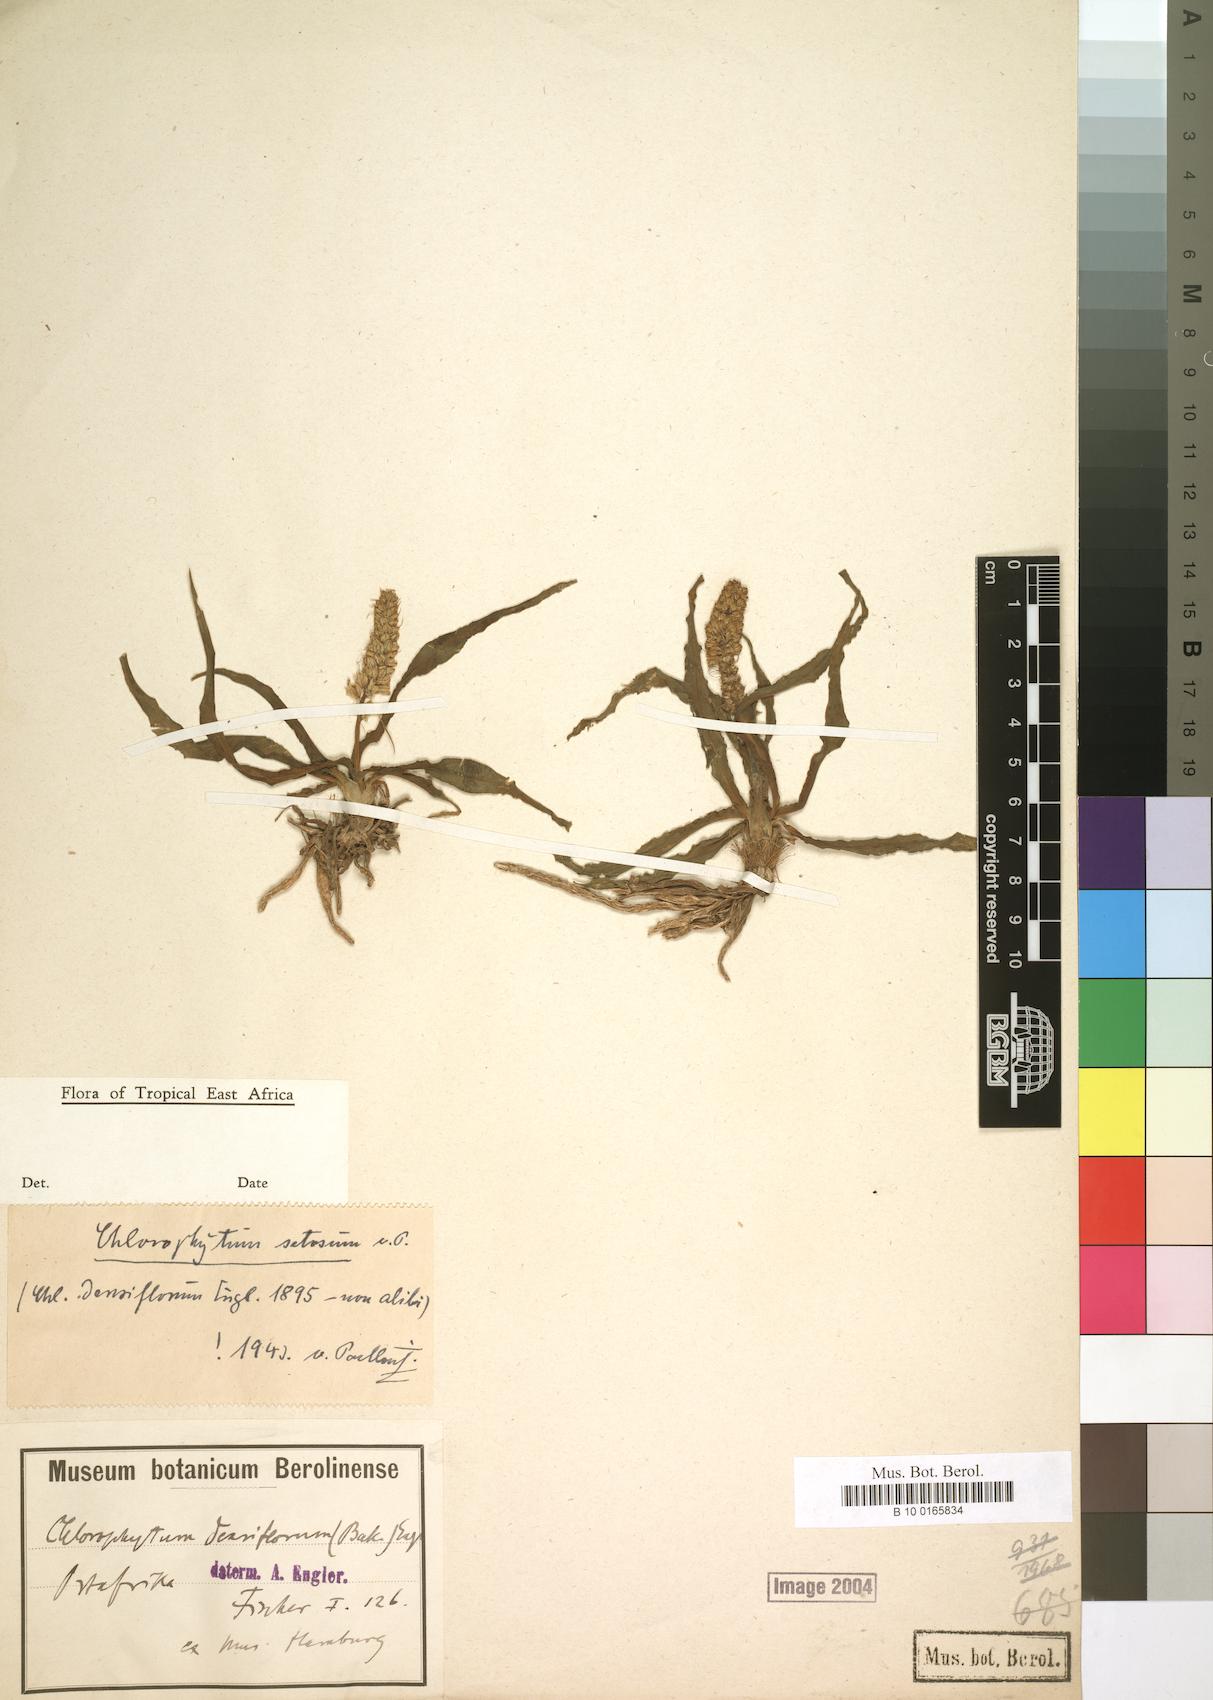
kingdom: Plantae
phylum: Tracheophyta
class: Liliopsida
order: Asparagales
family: Asparagaceae
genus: Chlorophytum
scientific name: Chlorophytum africanum
